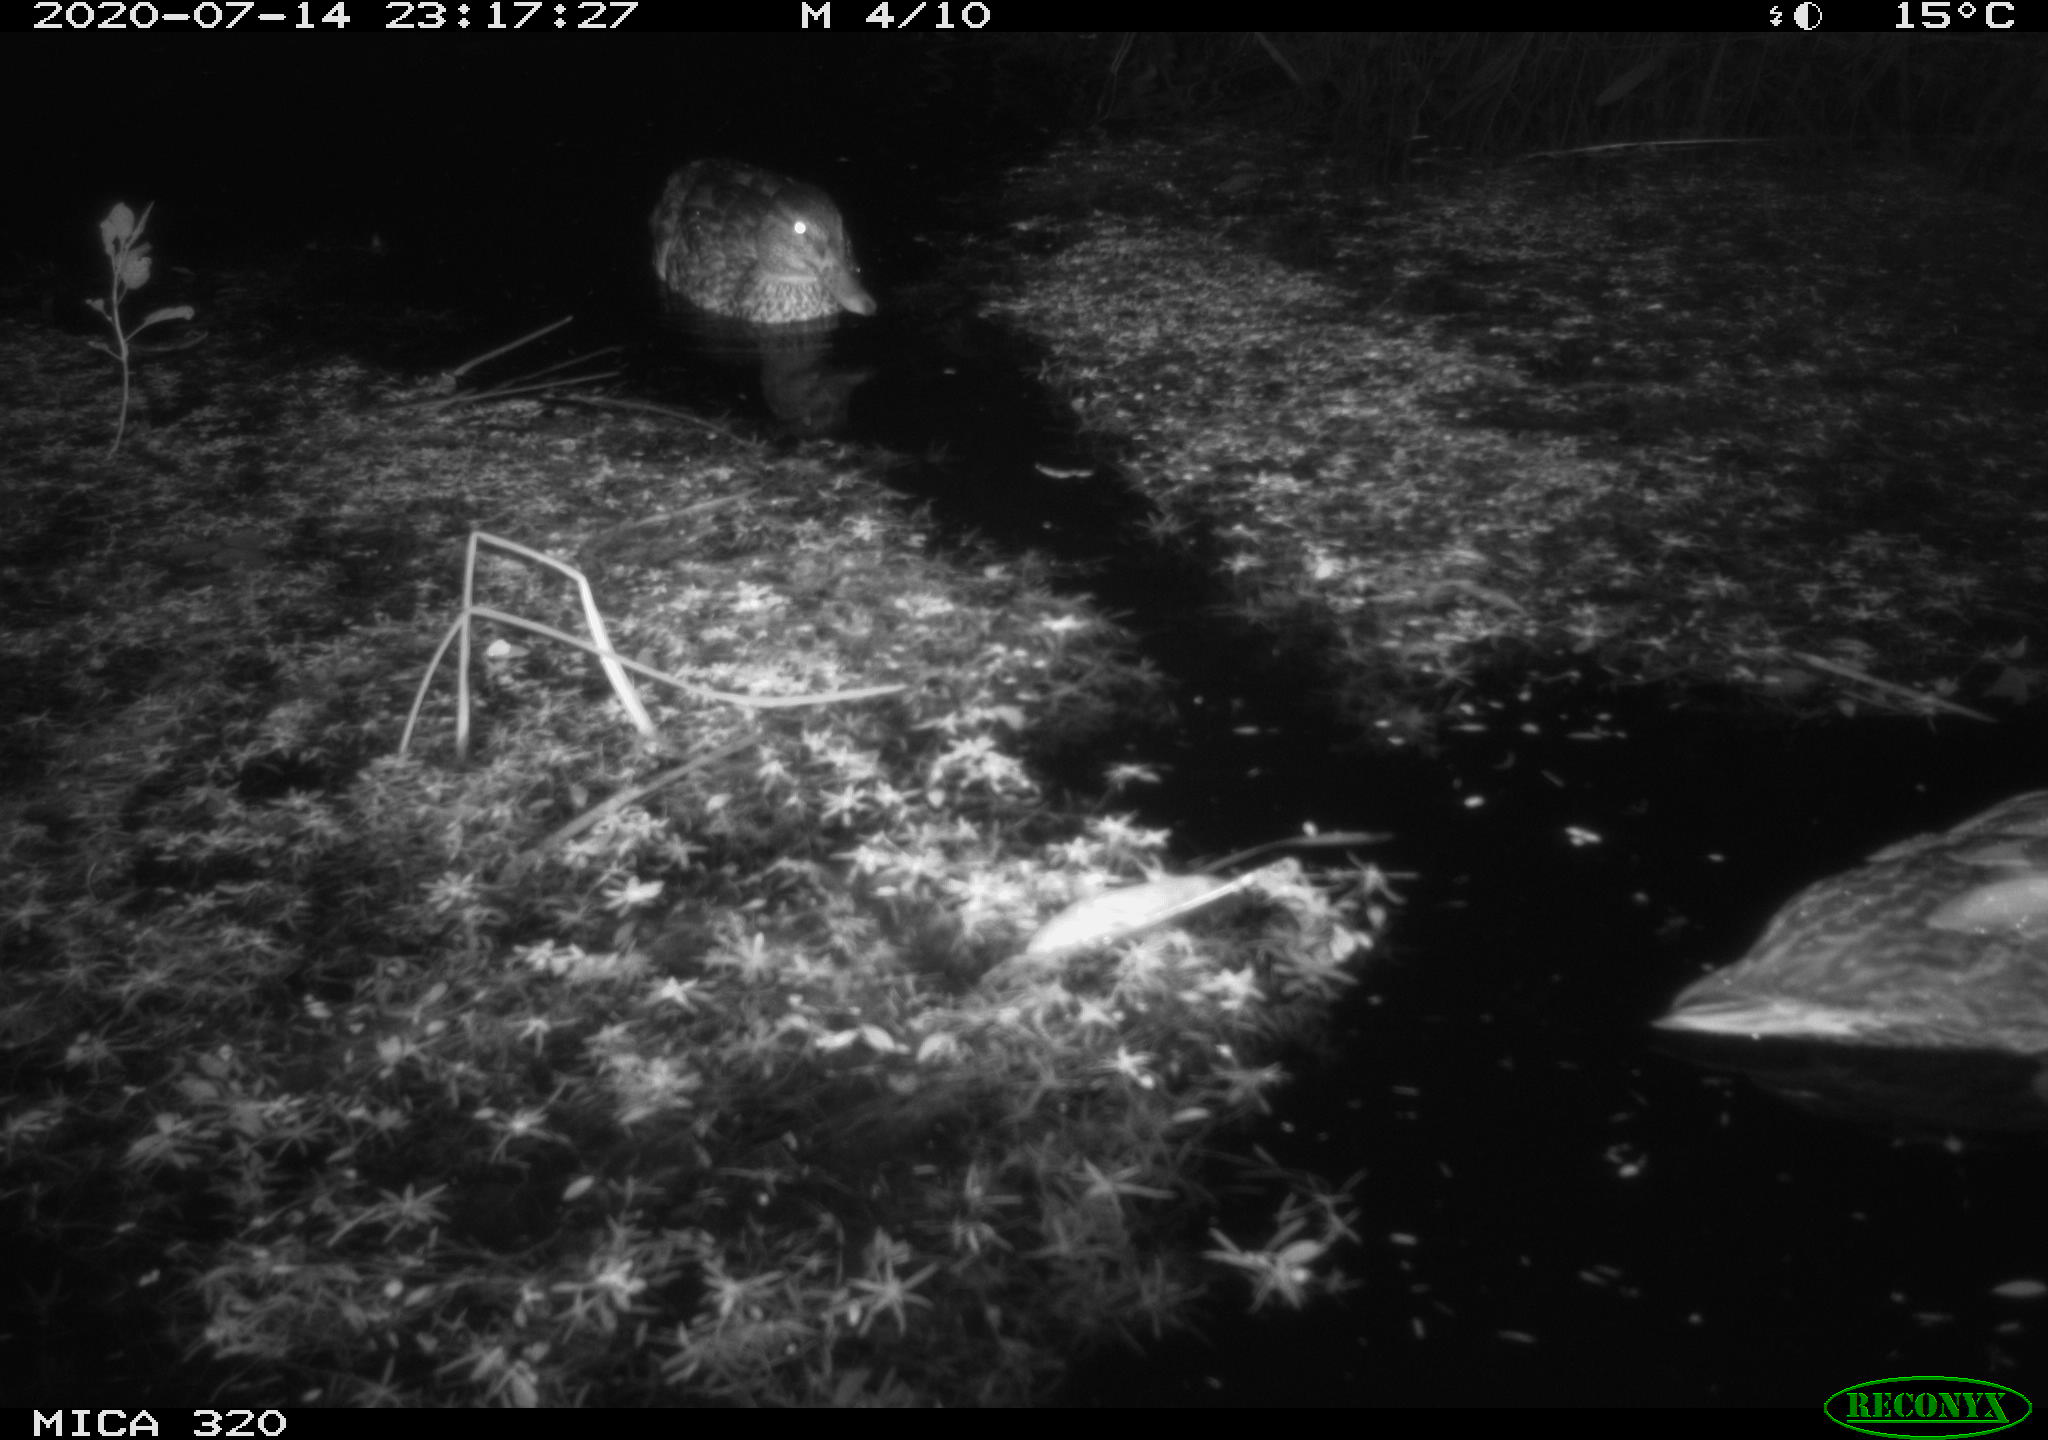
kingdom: Animalia
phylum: Chordata
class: Aves
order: Anseriformes
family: Anatidae
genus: Anas
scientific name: Anas platyrhynchos
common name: Mallard
